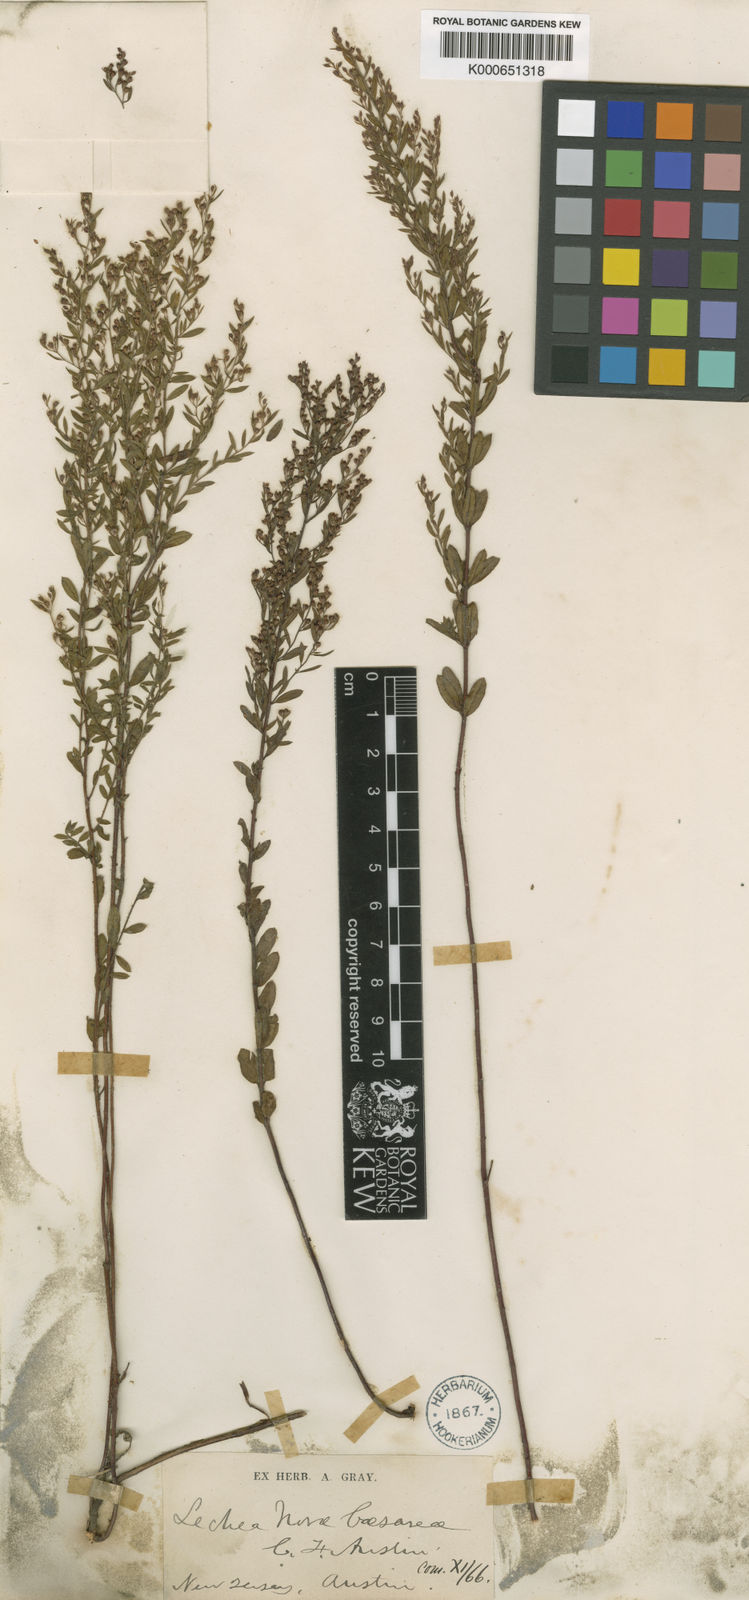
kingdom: Plantae
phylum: Tracheophyta
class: Magnoliopsida
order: Malvales
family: Cistaceae
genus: Lechea
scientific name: Lechea minor
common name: Thyme-leaf pinweed
